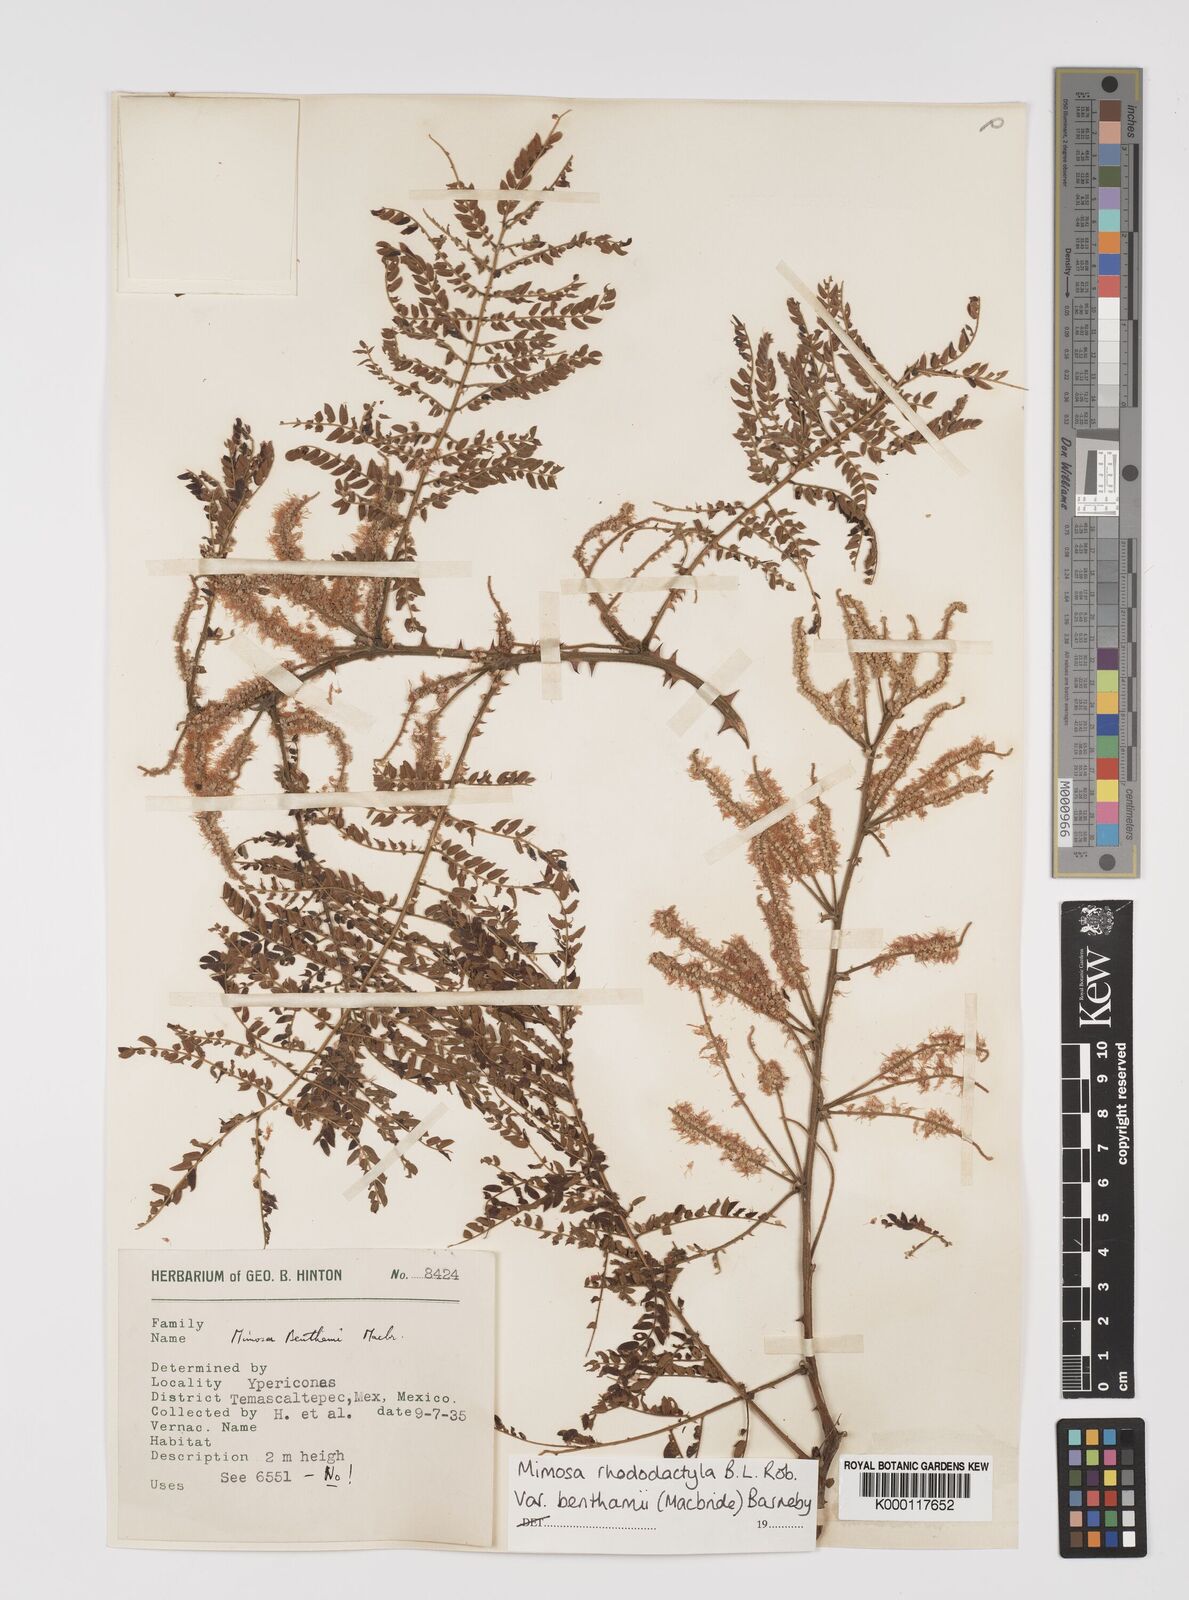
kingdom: Plantae
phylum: Tracheophyta
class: Magnoliopsida
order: Fabales
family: Fabaceae
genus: Mimosa
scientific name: Mimosa benthamii
